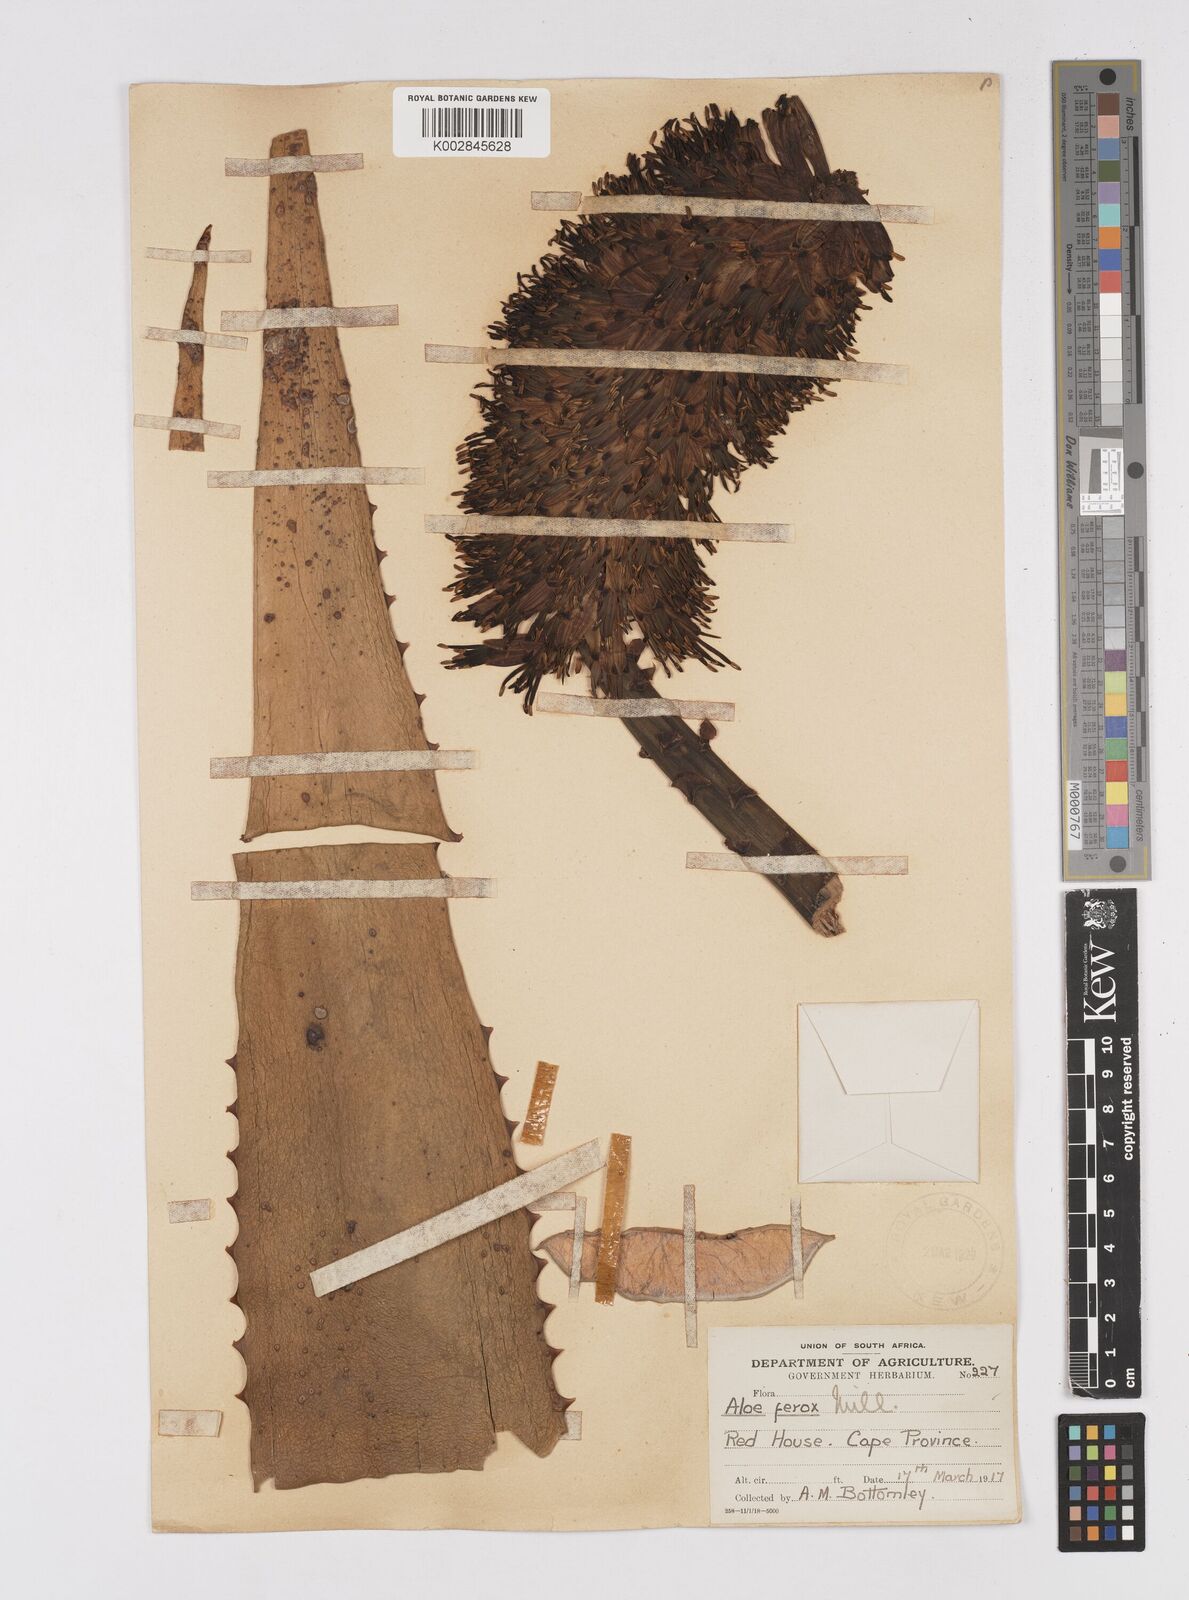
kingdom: Plantae
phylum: Tracheophyta
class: Liliopsida
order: Asparagales
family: Asphodelaceae
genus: Aloe
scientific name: Aloe ferox
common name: Bitter aloe
